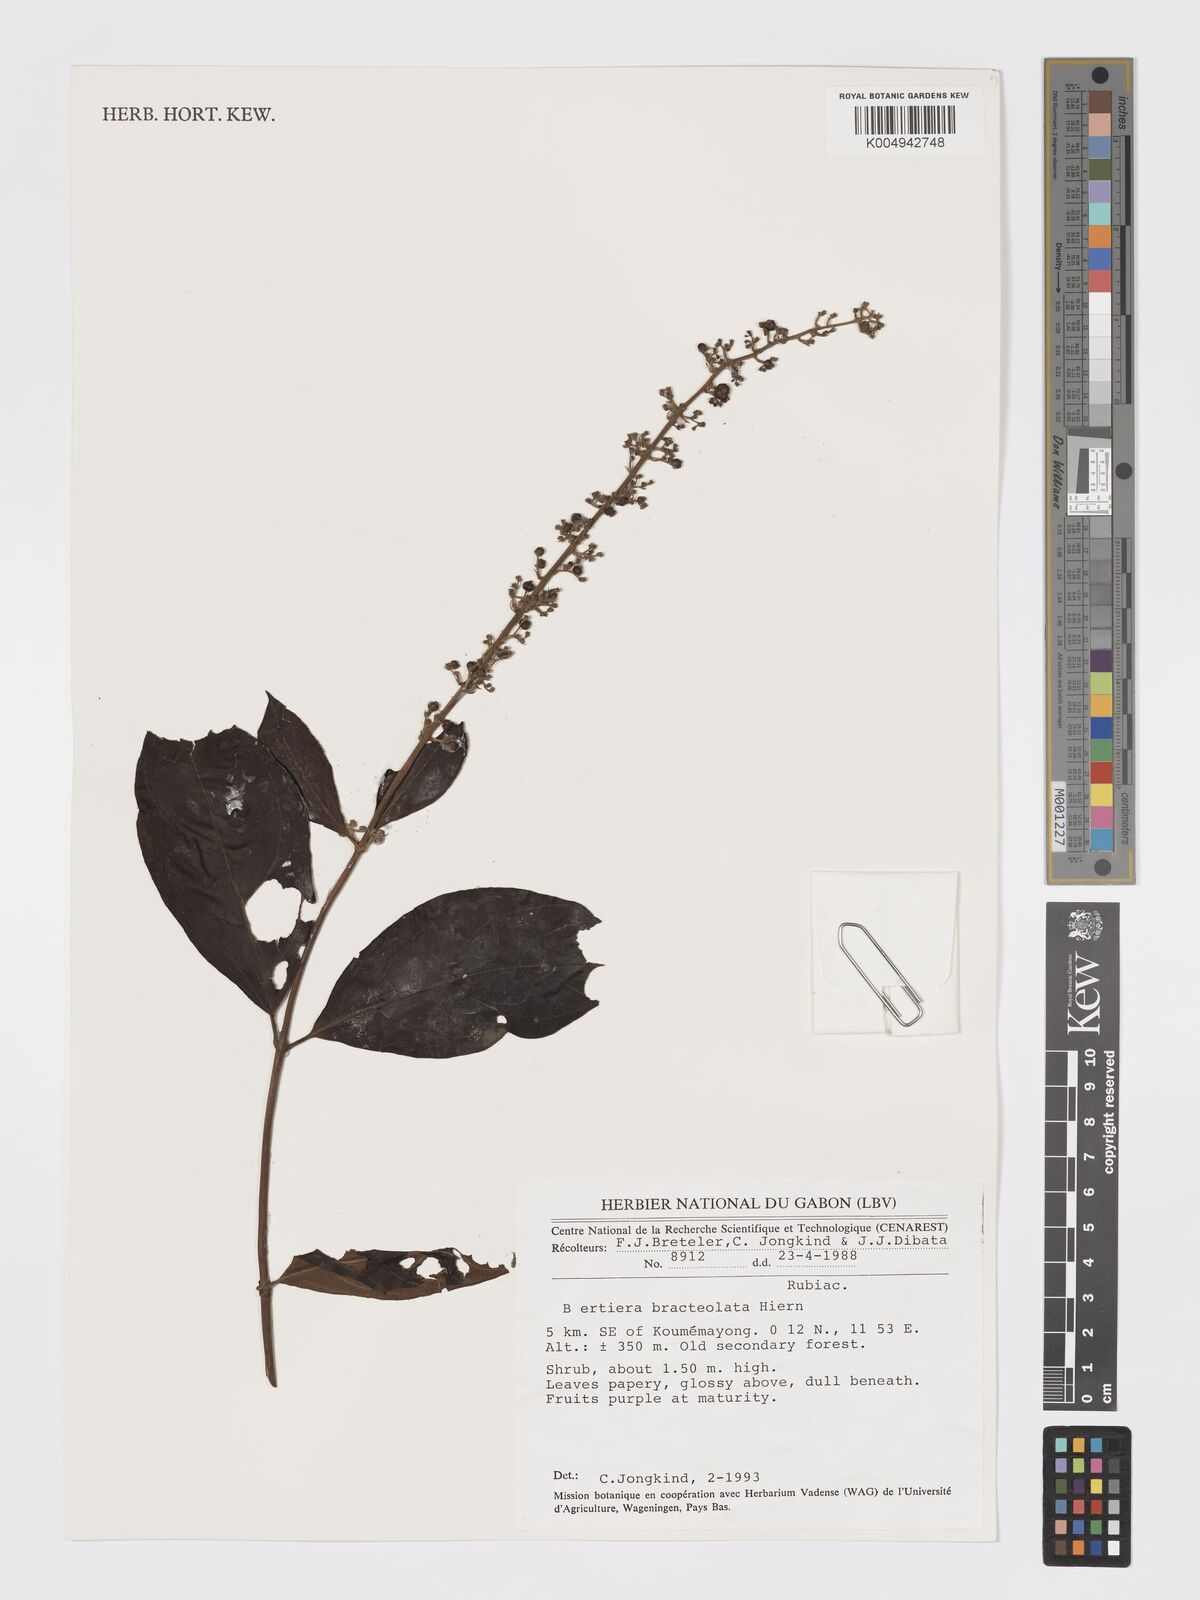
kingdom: Plantae
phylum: Tracheophyta
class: Magnoliopsida
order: Gentianales
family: Rubiaceae
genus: Bertiera
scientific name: Bertiera bracteolata
